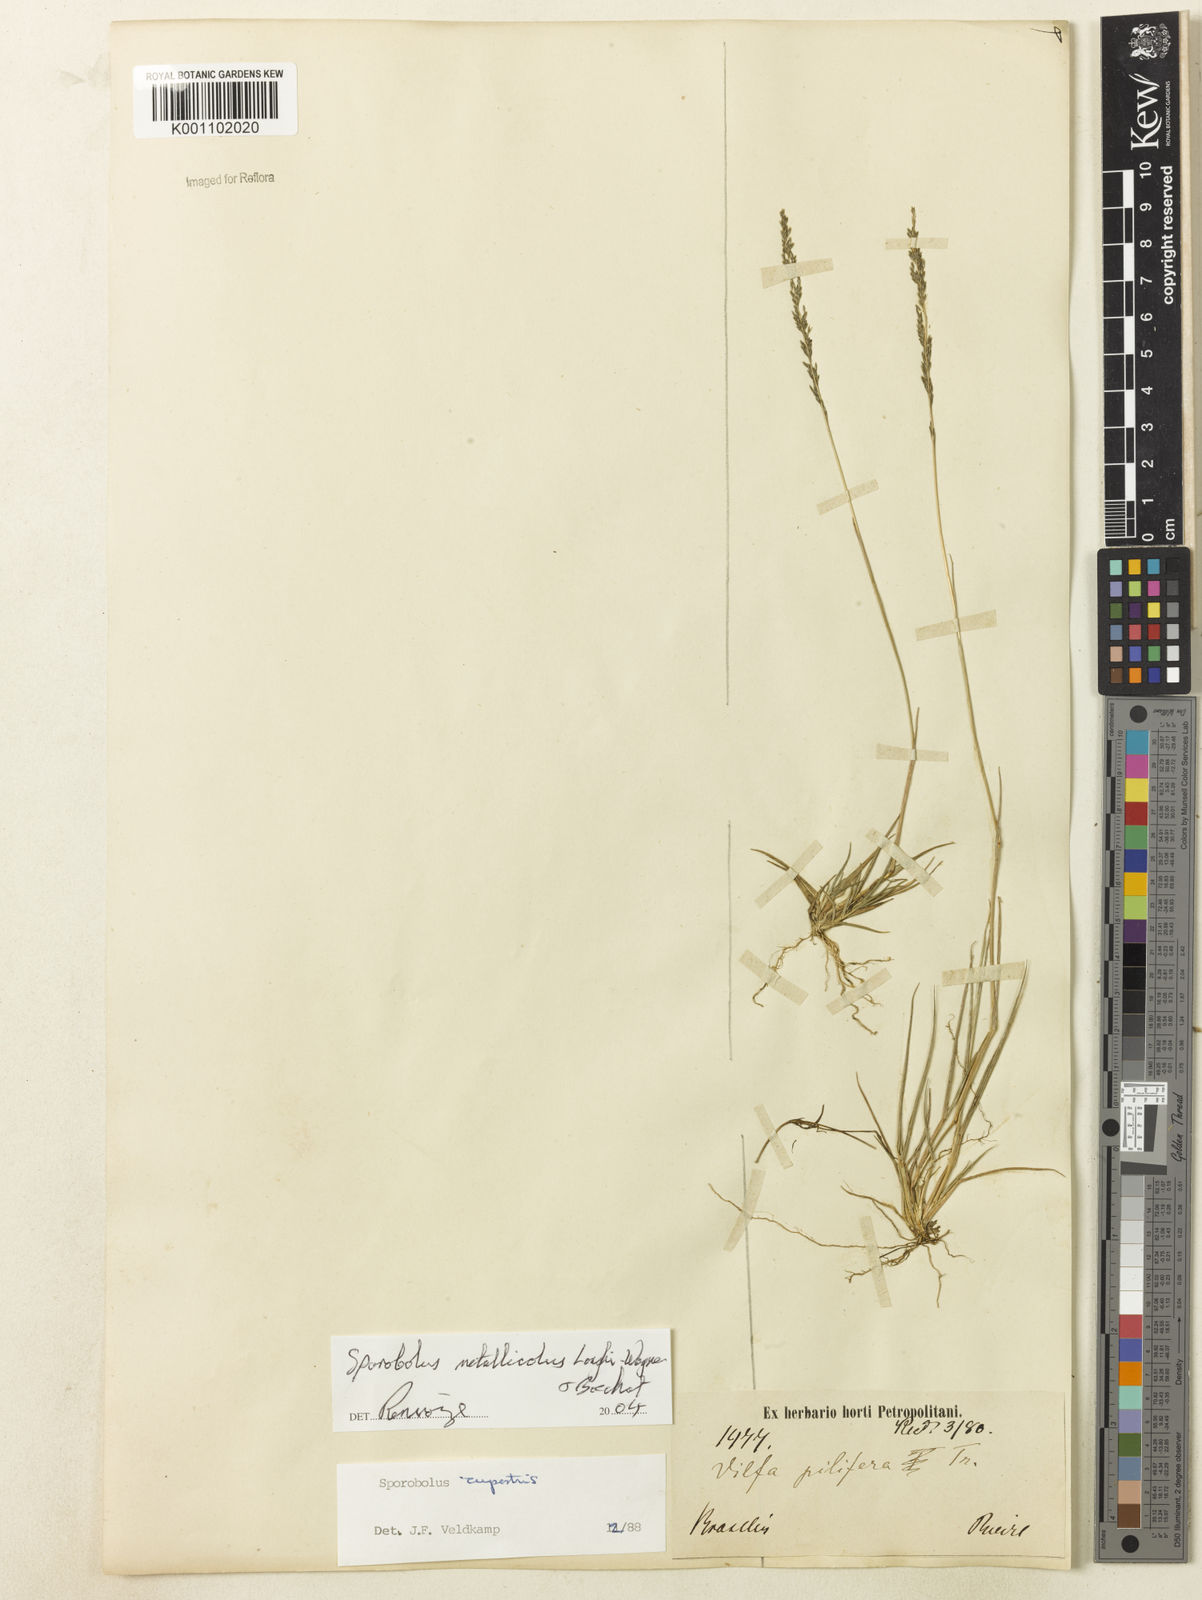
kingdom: Plantae
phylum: Tracheophyta
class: Liliopsida
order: Poales
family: Poaceae
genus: Sporobolus
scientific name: Sporobolus metallicola
